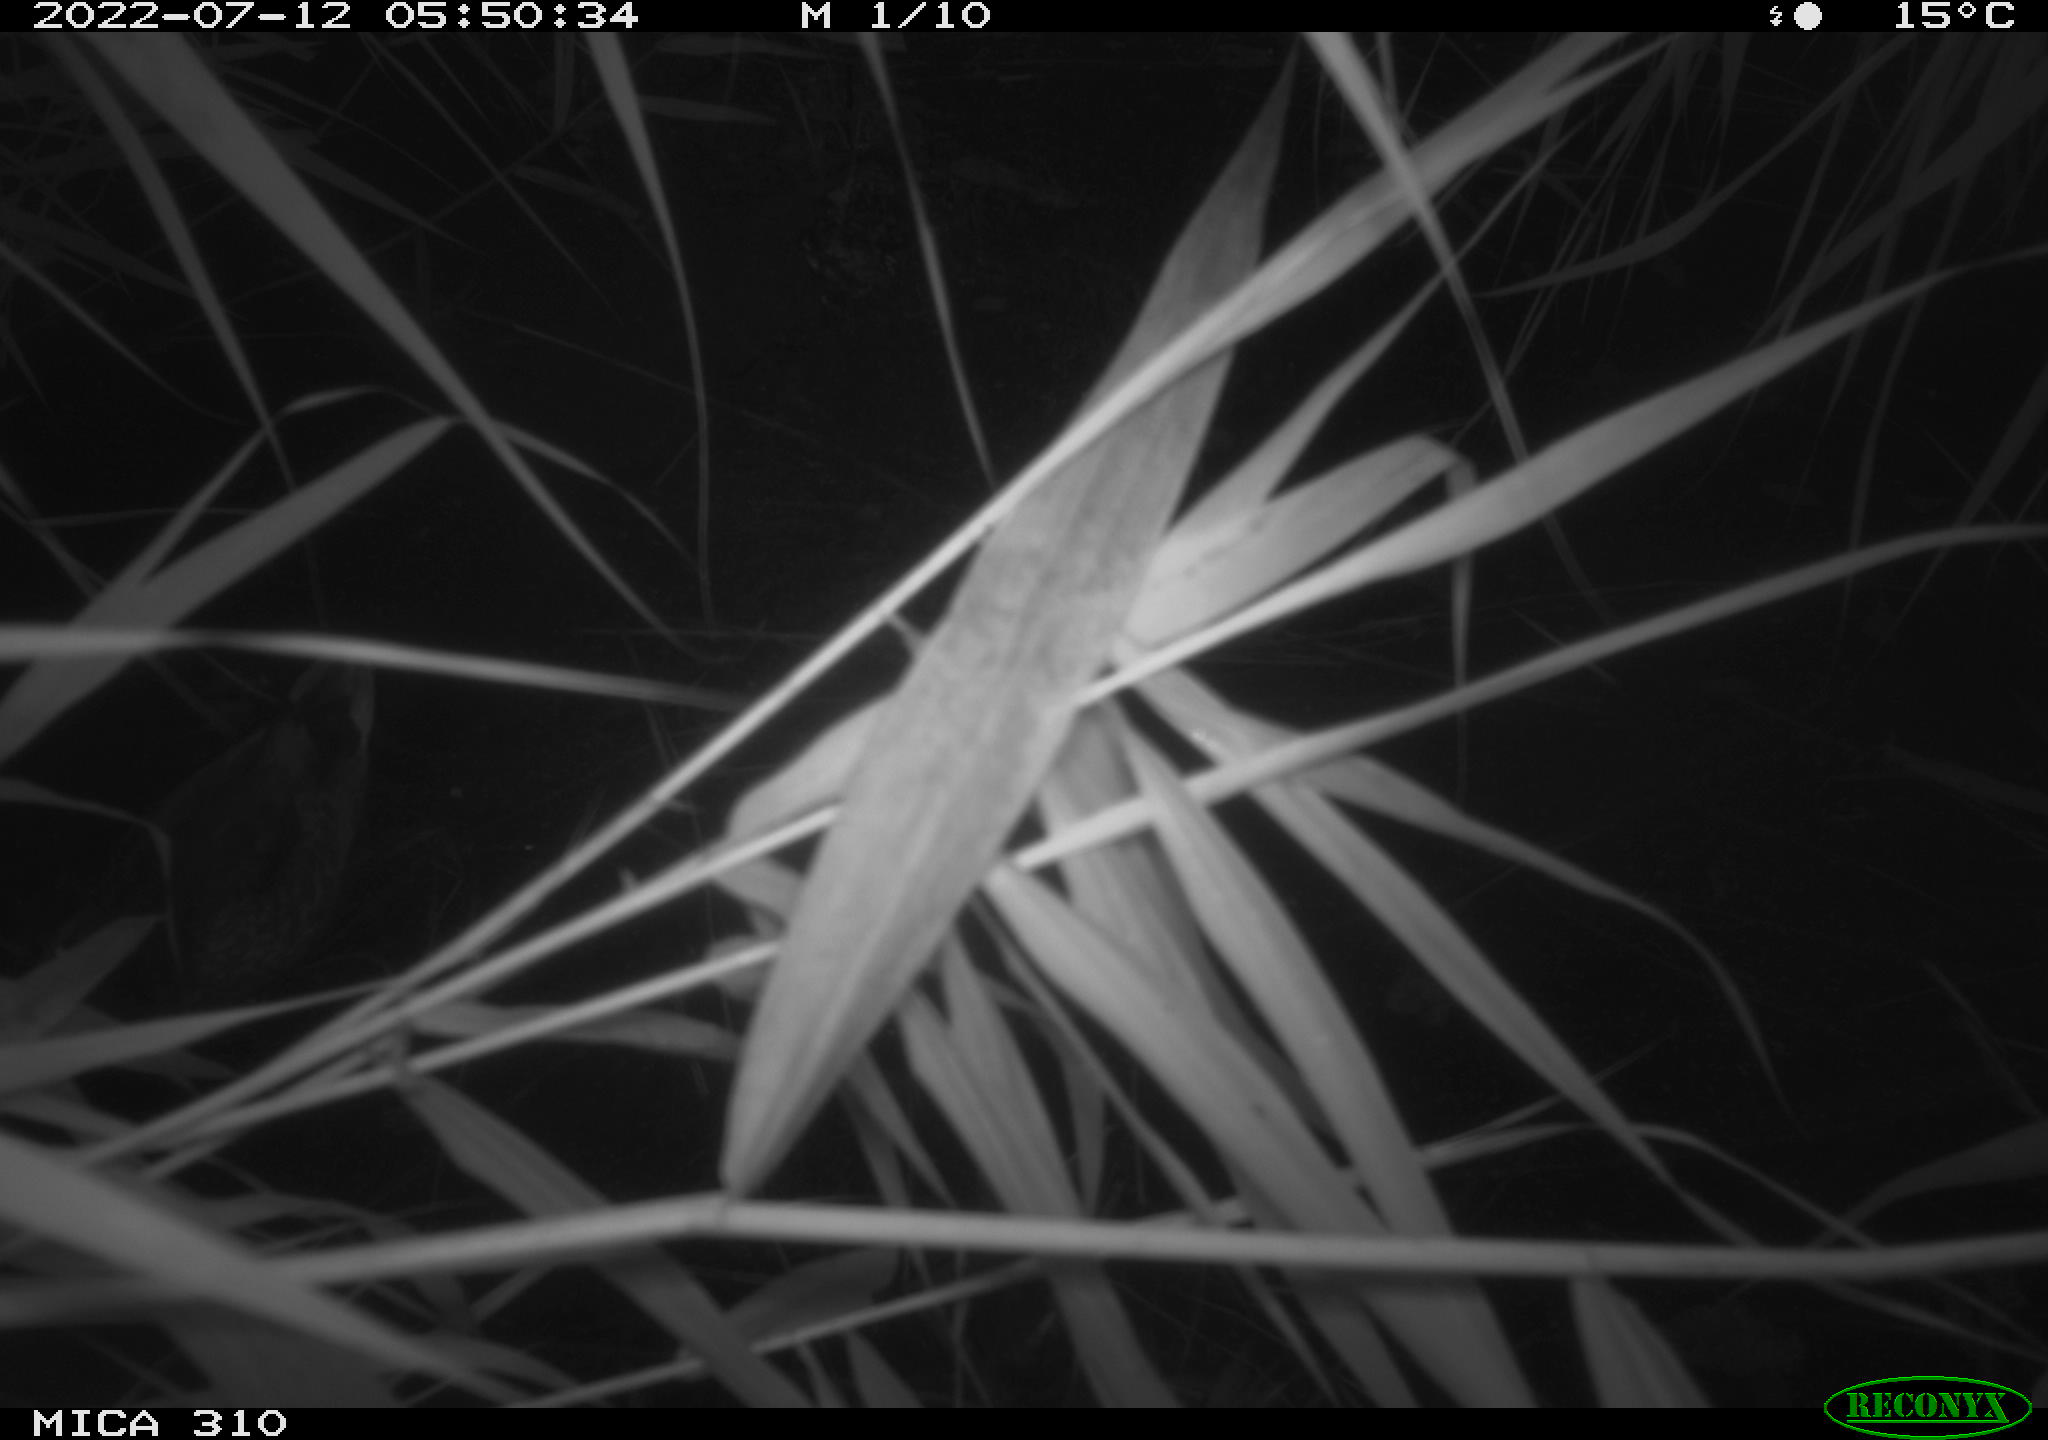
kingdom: Animalia
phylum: Chordata
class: Aves
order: Anseriformes
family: Anatidae
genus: Anas
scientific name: Anas platyrhynchos
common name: Mallard
